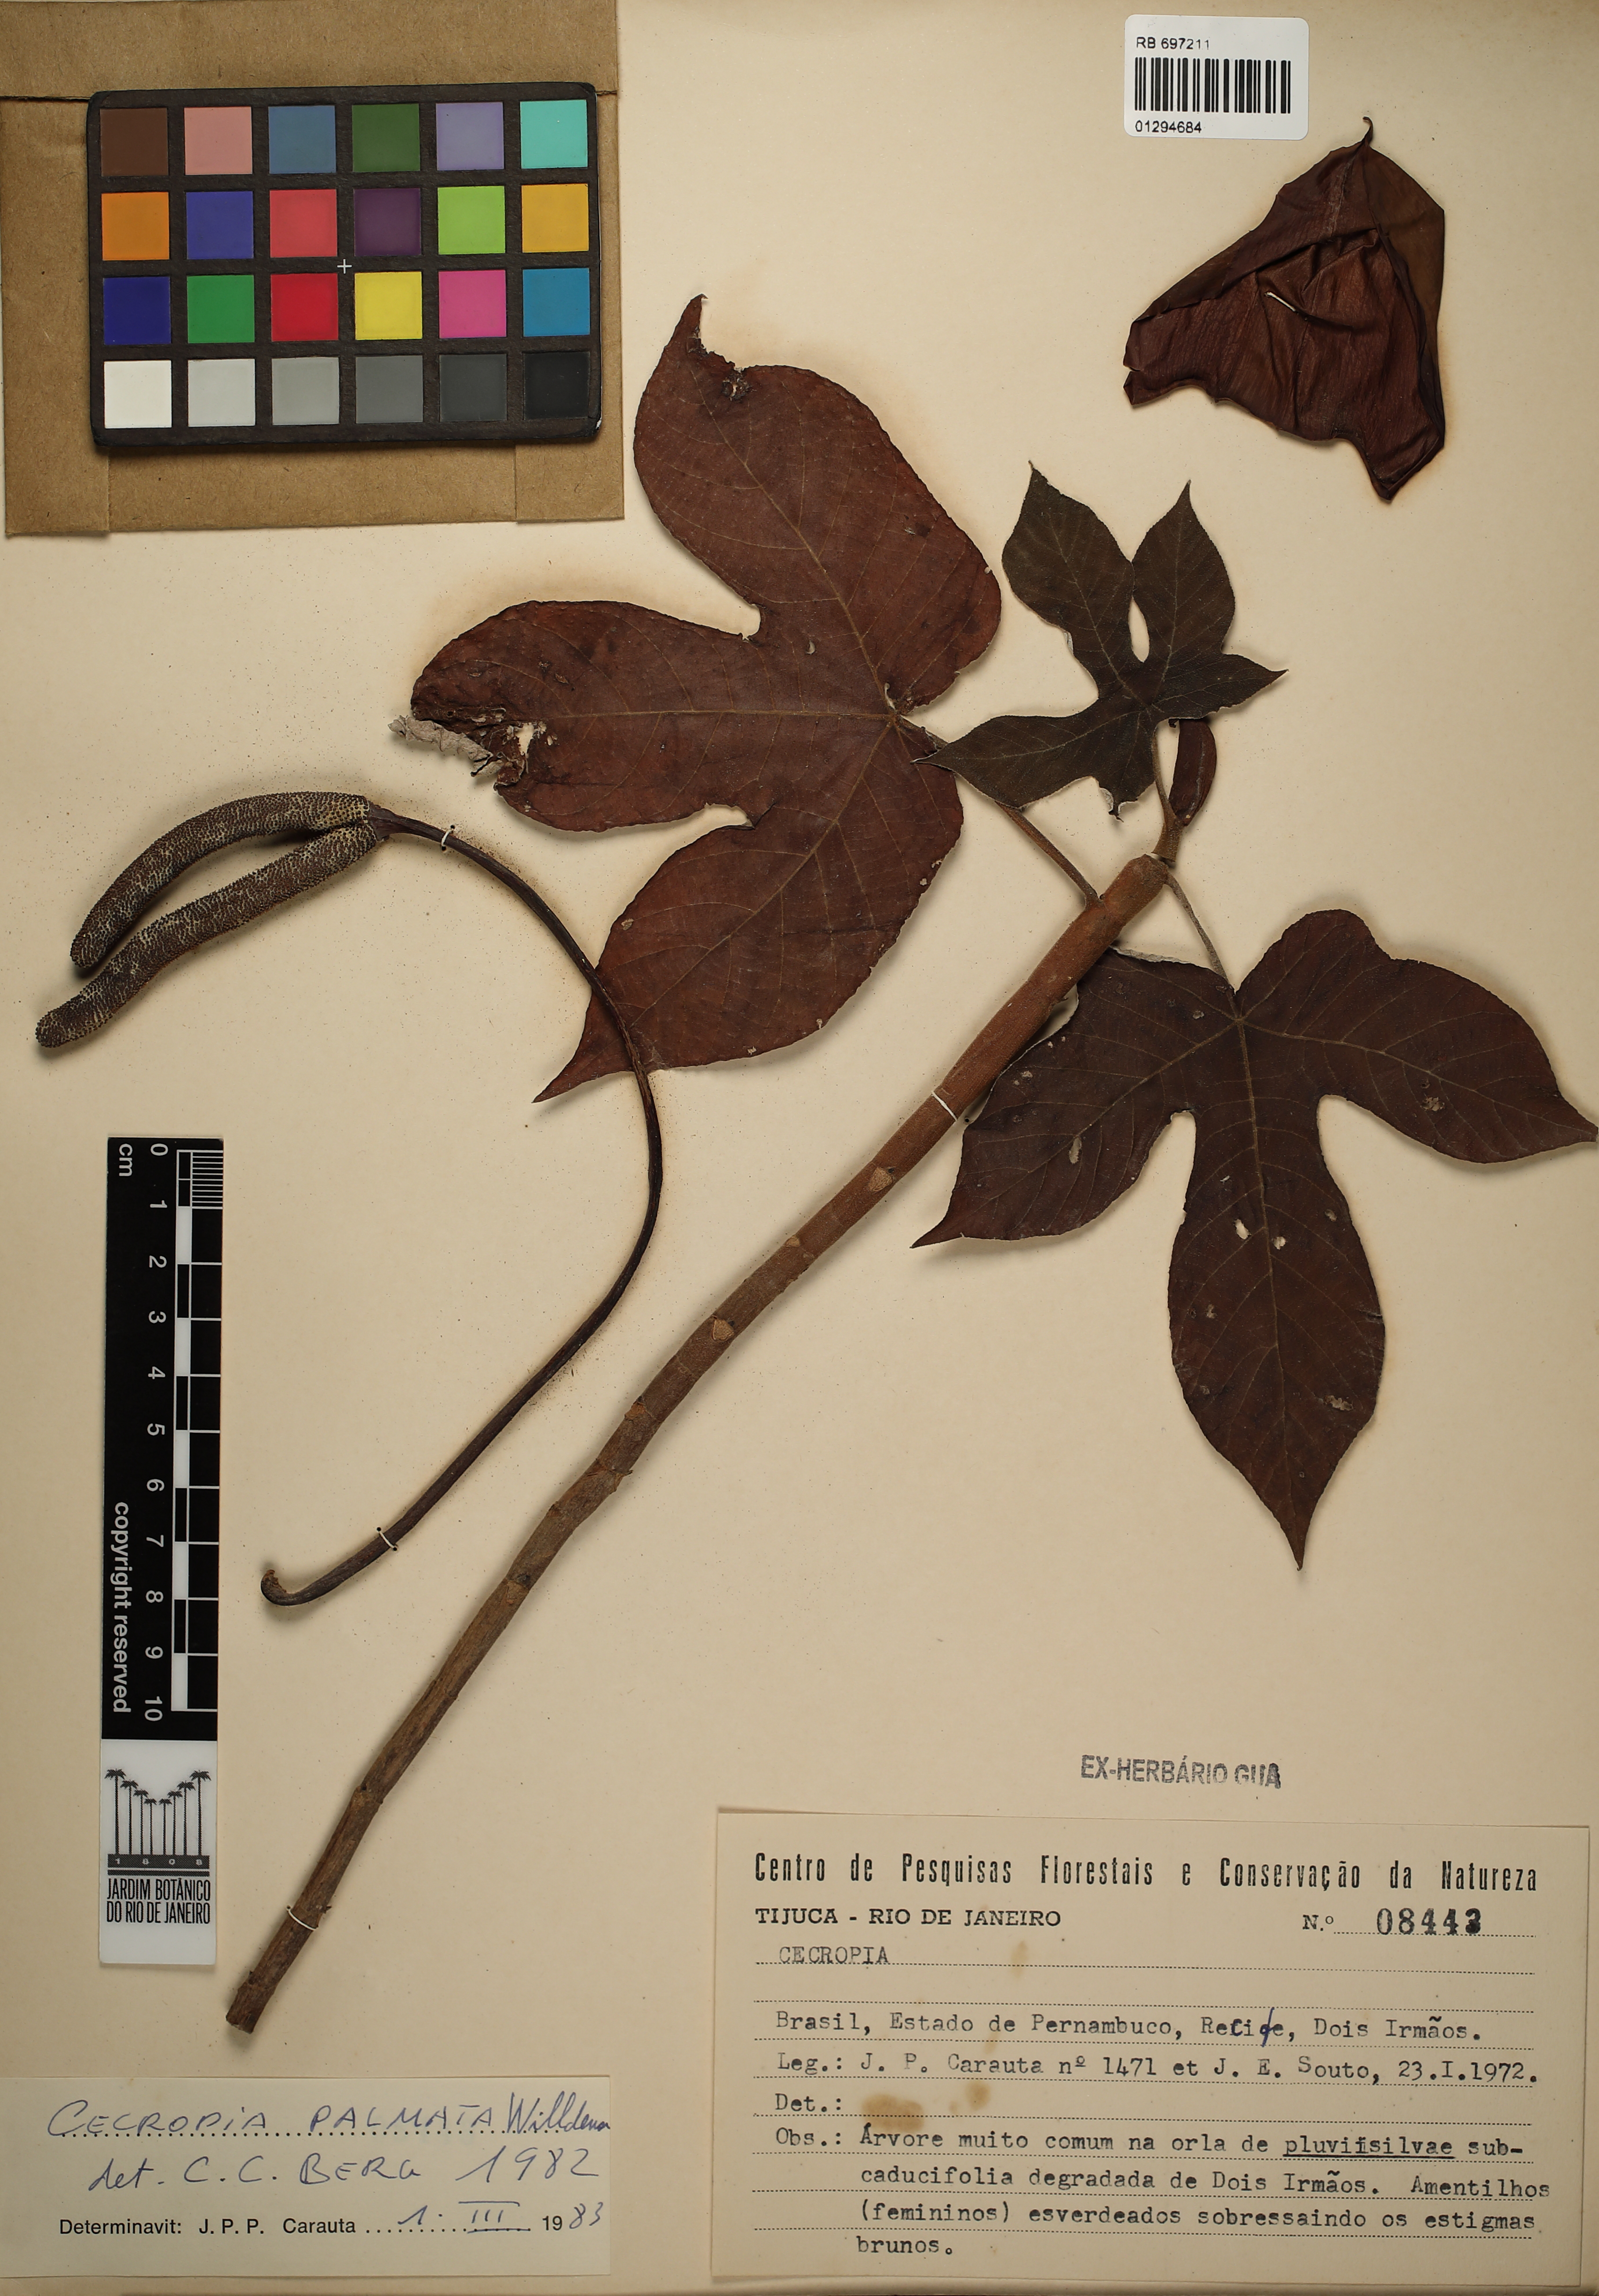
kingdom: Plantae
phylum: Tracheophyta
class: Magnoliopsida
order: Rosales
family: Urticaceae
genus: Cecropia
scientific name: Cecropia palmata
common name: Trumpet tree
